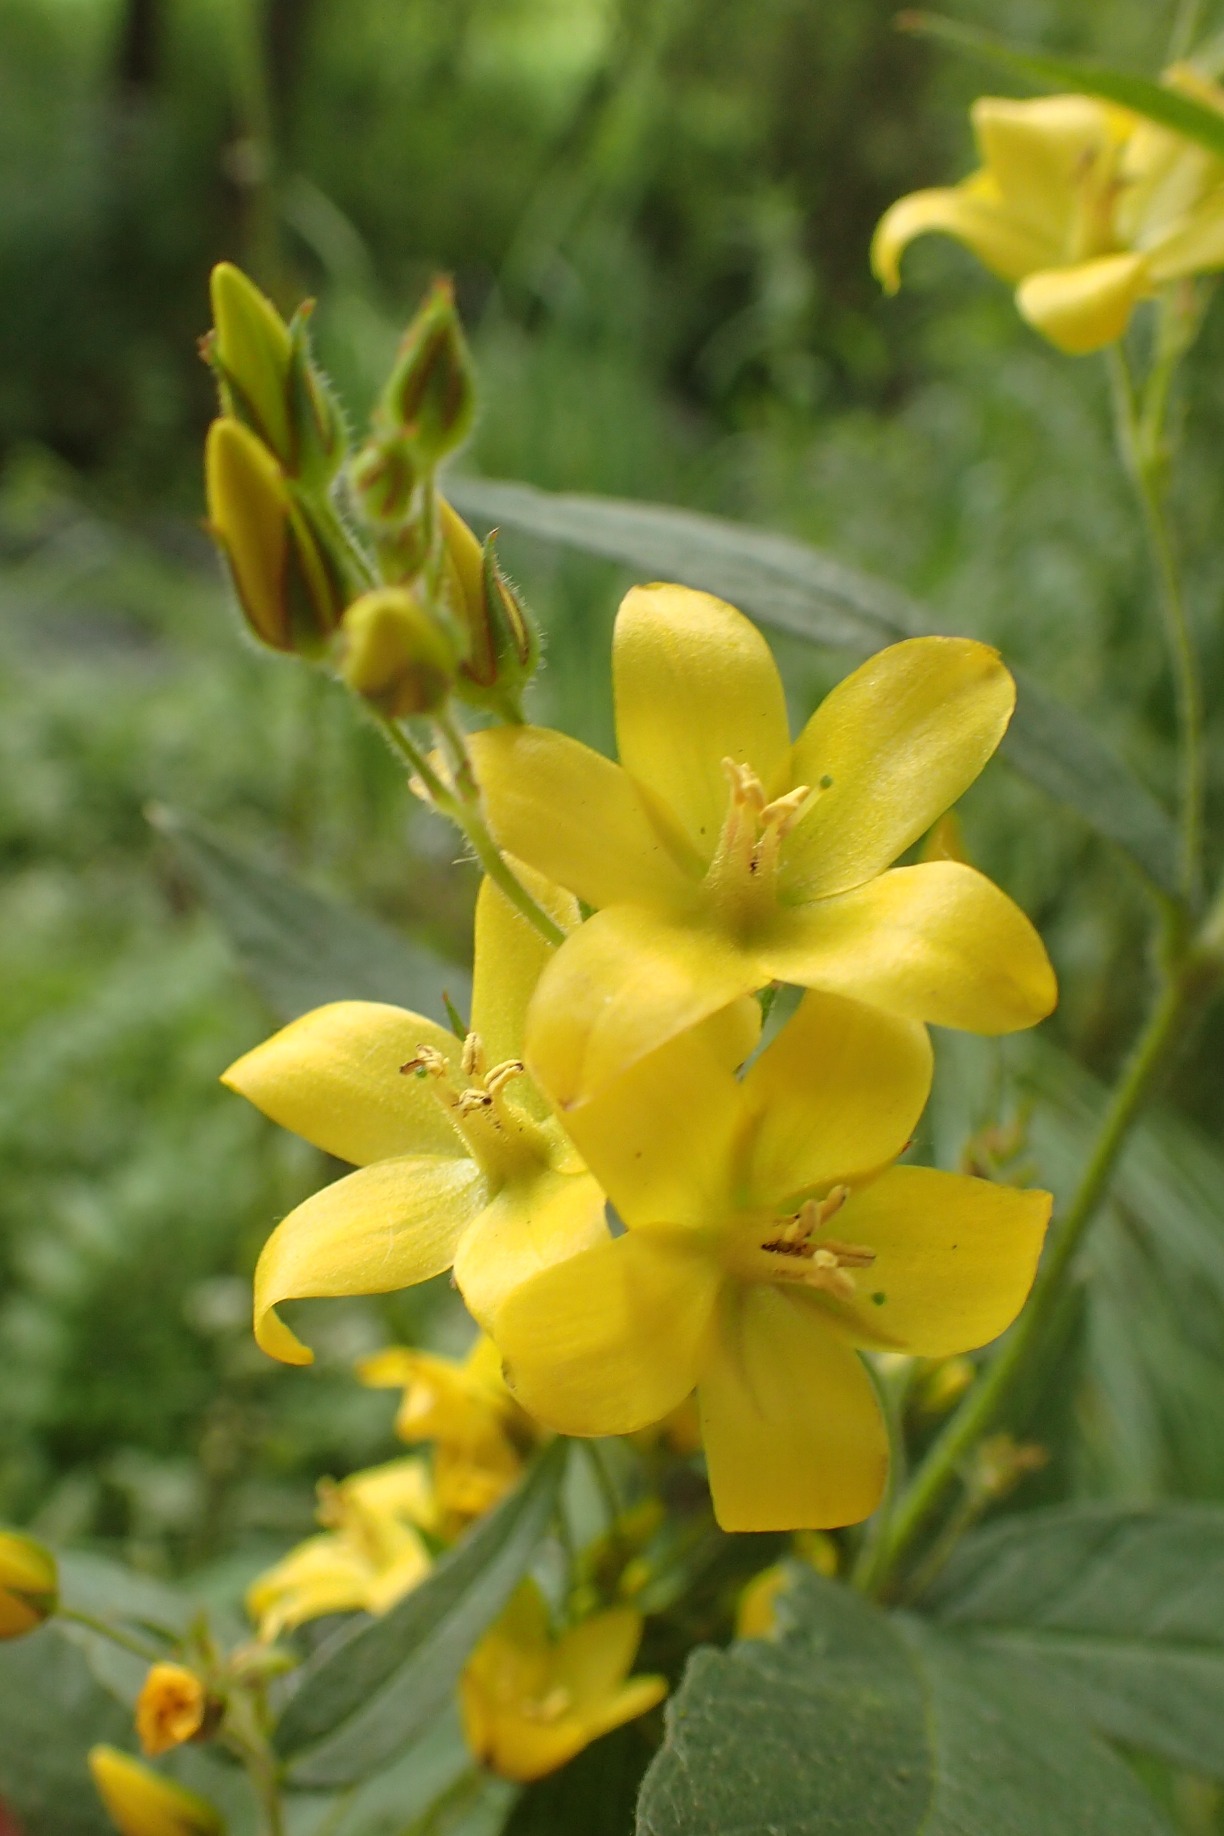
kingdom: Plantae
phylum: Tracheophyta
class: Magnoliopsida
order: Ericales
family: Primulaceae
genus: Lysimachia
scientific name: Lysimachia vulgaris
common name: Almindelig fredløs
